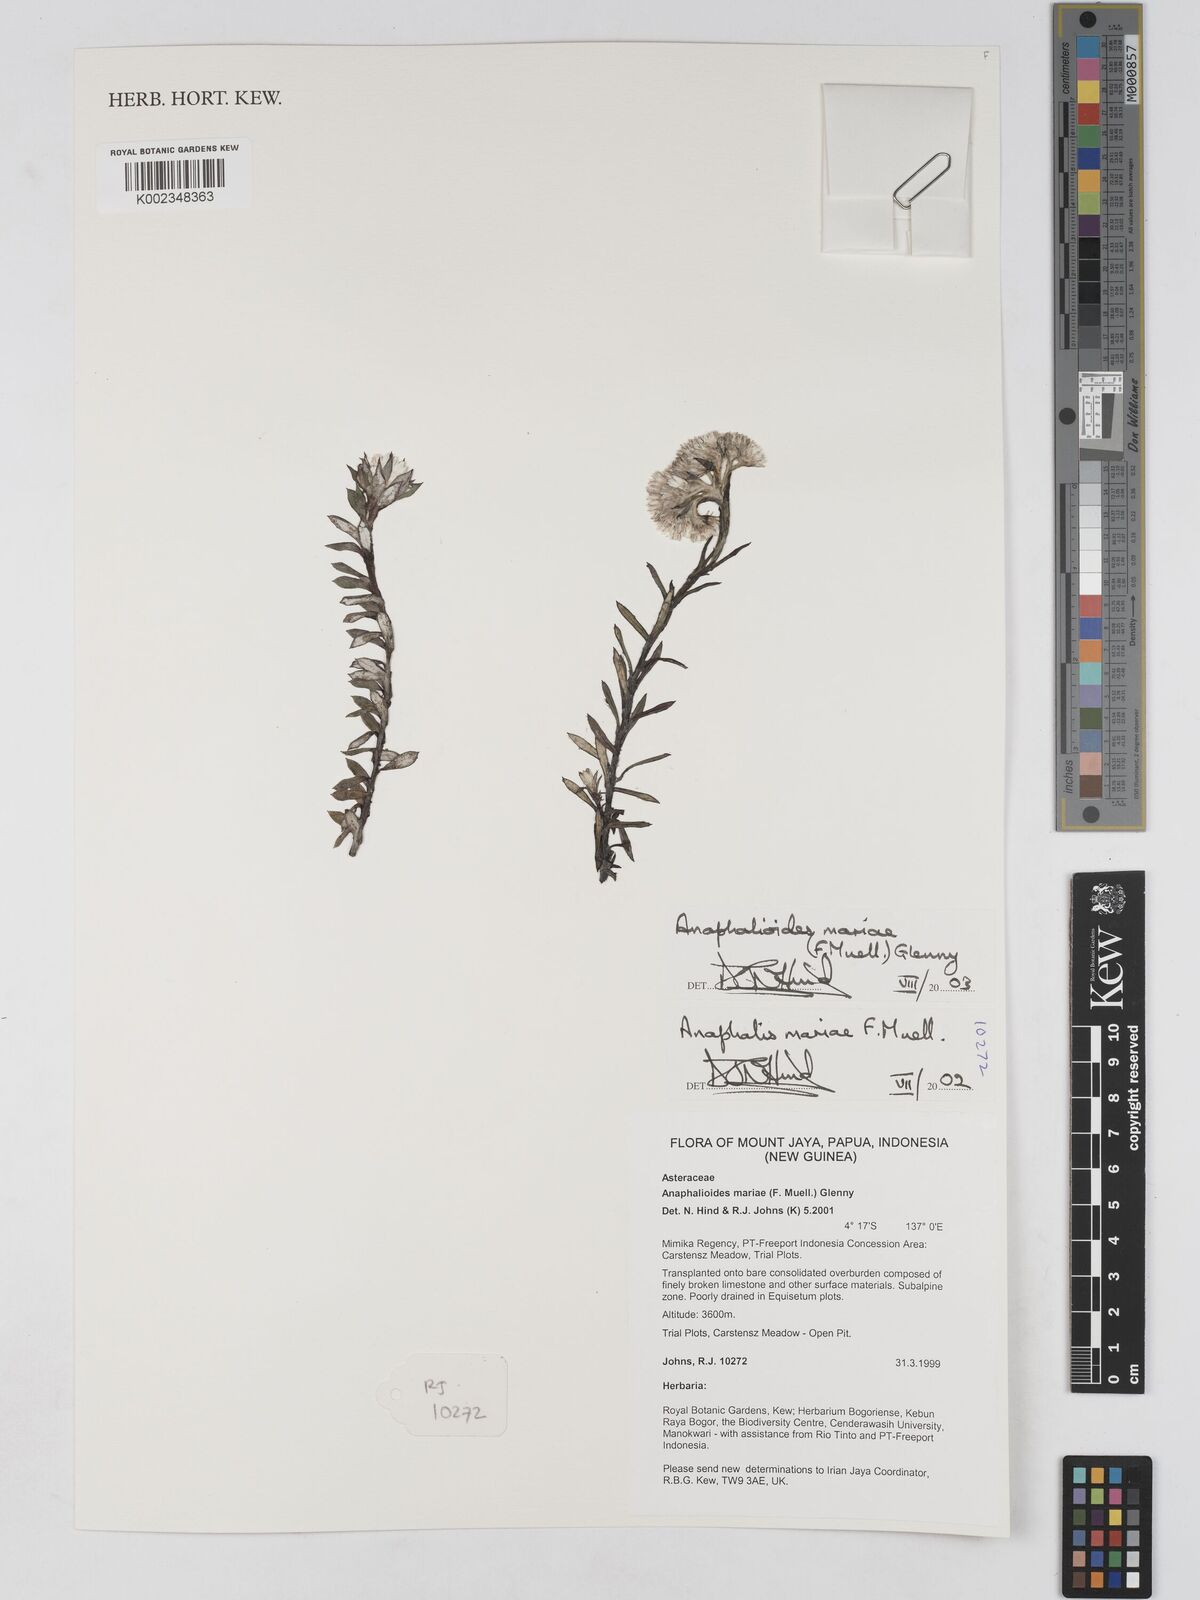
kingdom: Plantae
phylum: Tracheophyta
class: Magnoliopsida
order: Asterales
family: Asteraceae
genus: Anaphalioides
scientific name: Anaphalioides mariae
